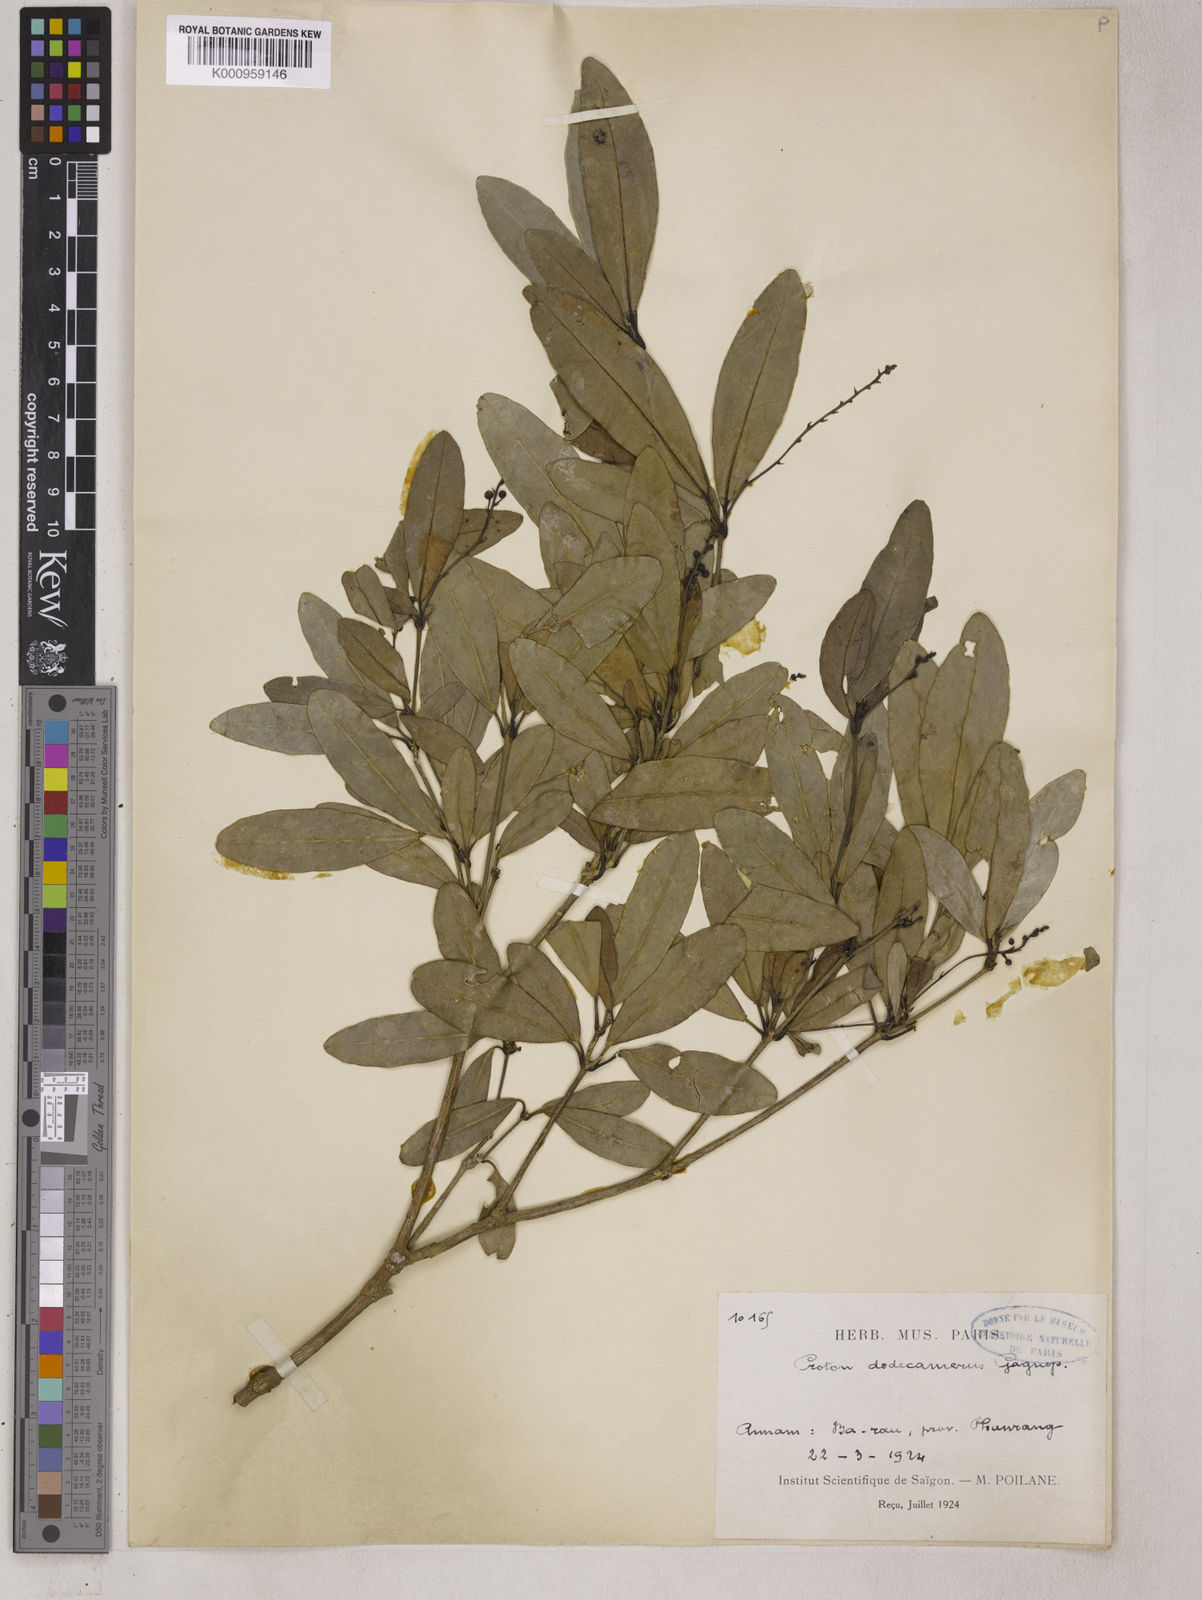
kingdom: Plantae
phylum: Tracheophyta
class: Magnoliopsida
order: Malpighiales
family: Euphorbiaceae
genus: Croton
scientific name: Croton dodecamerus
